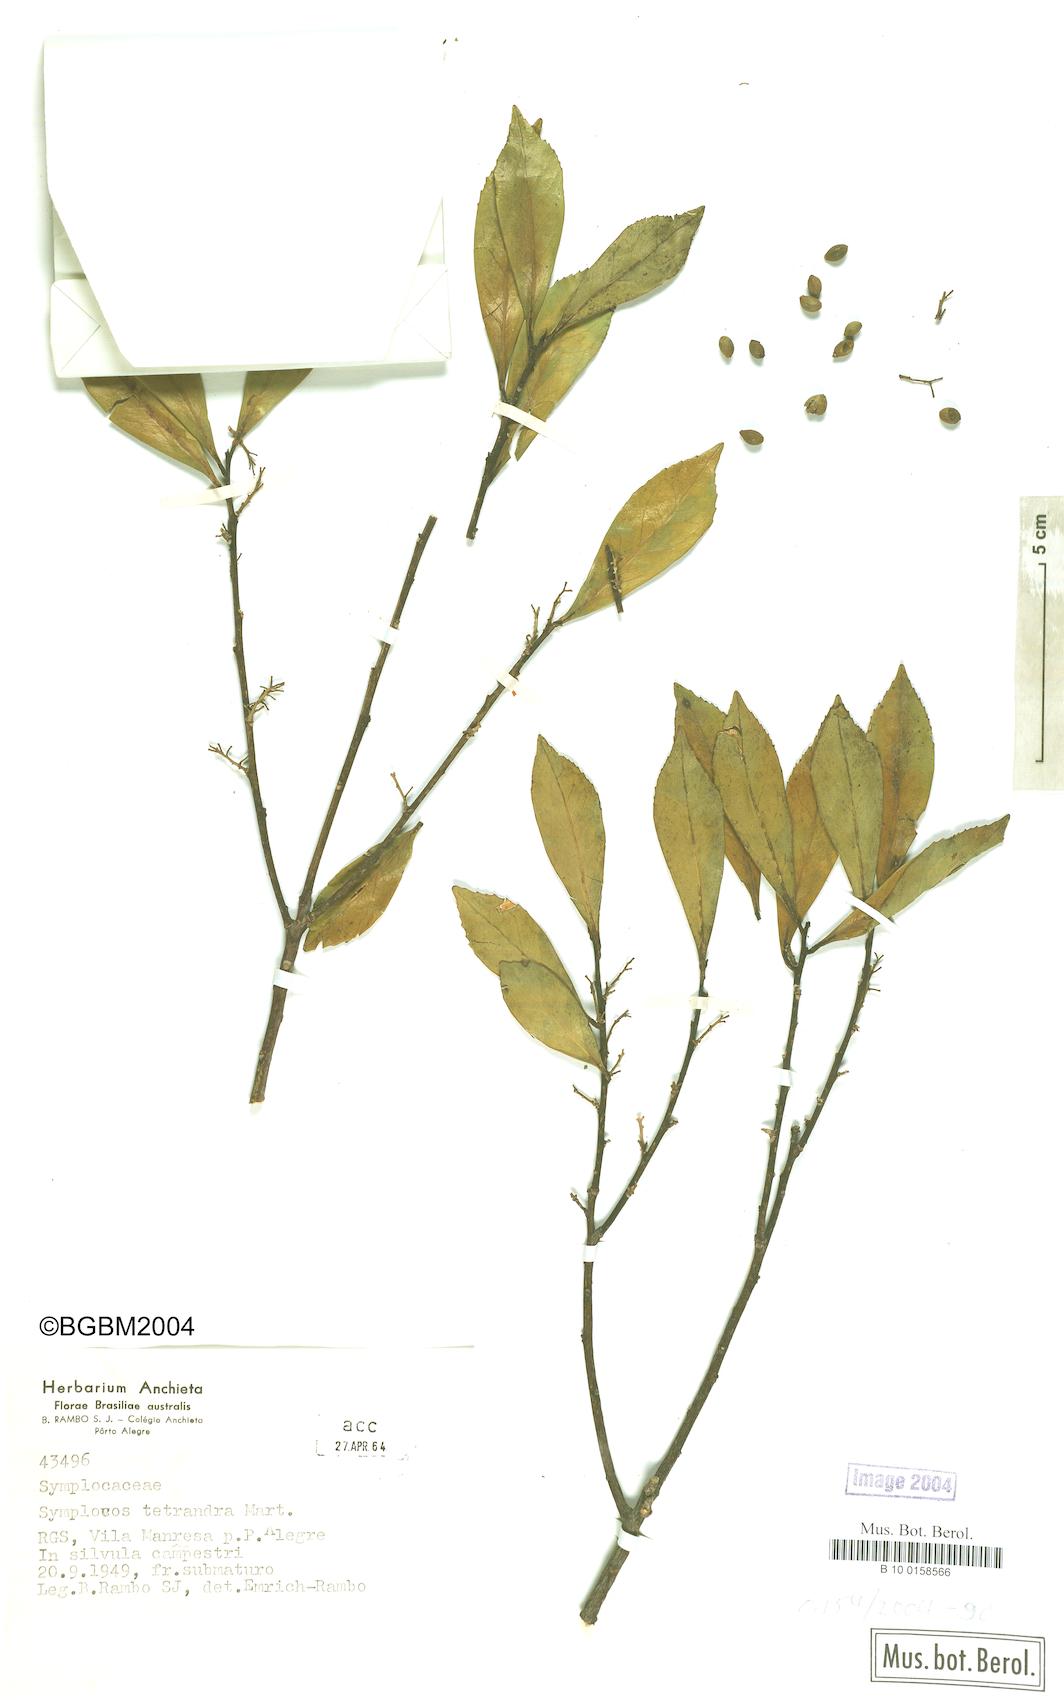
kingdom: Plantae
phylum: Tracheophyta
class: Magnoliopsida
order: Ericales
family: Symplocaceae
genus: Symplocos
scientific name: Symplocos tetrandra
